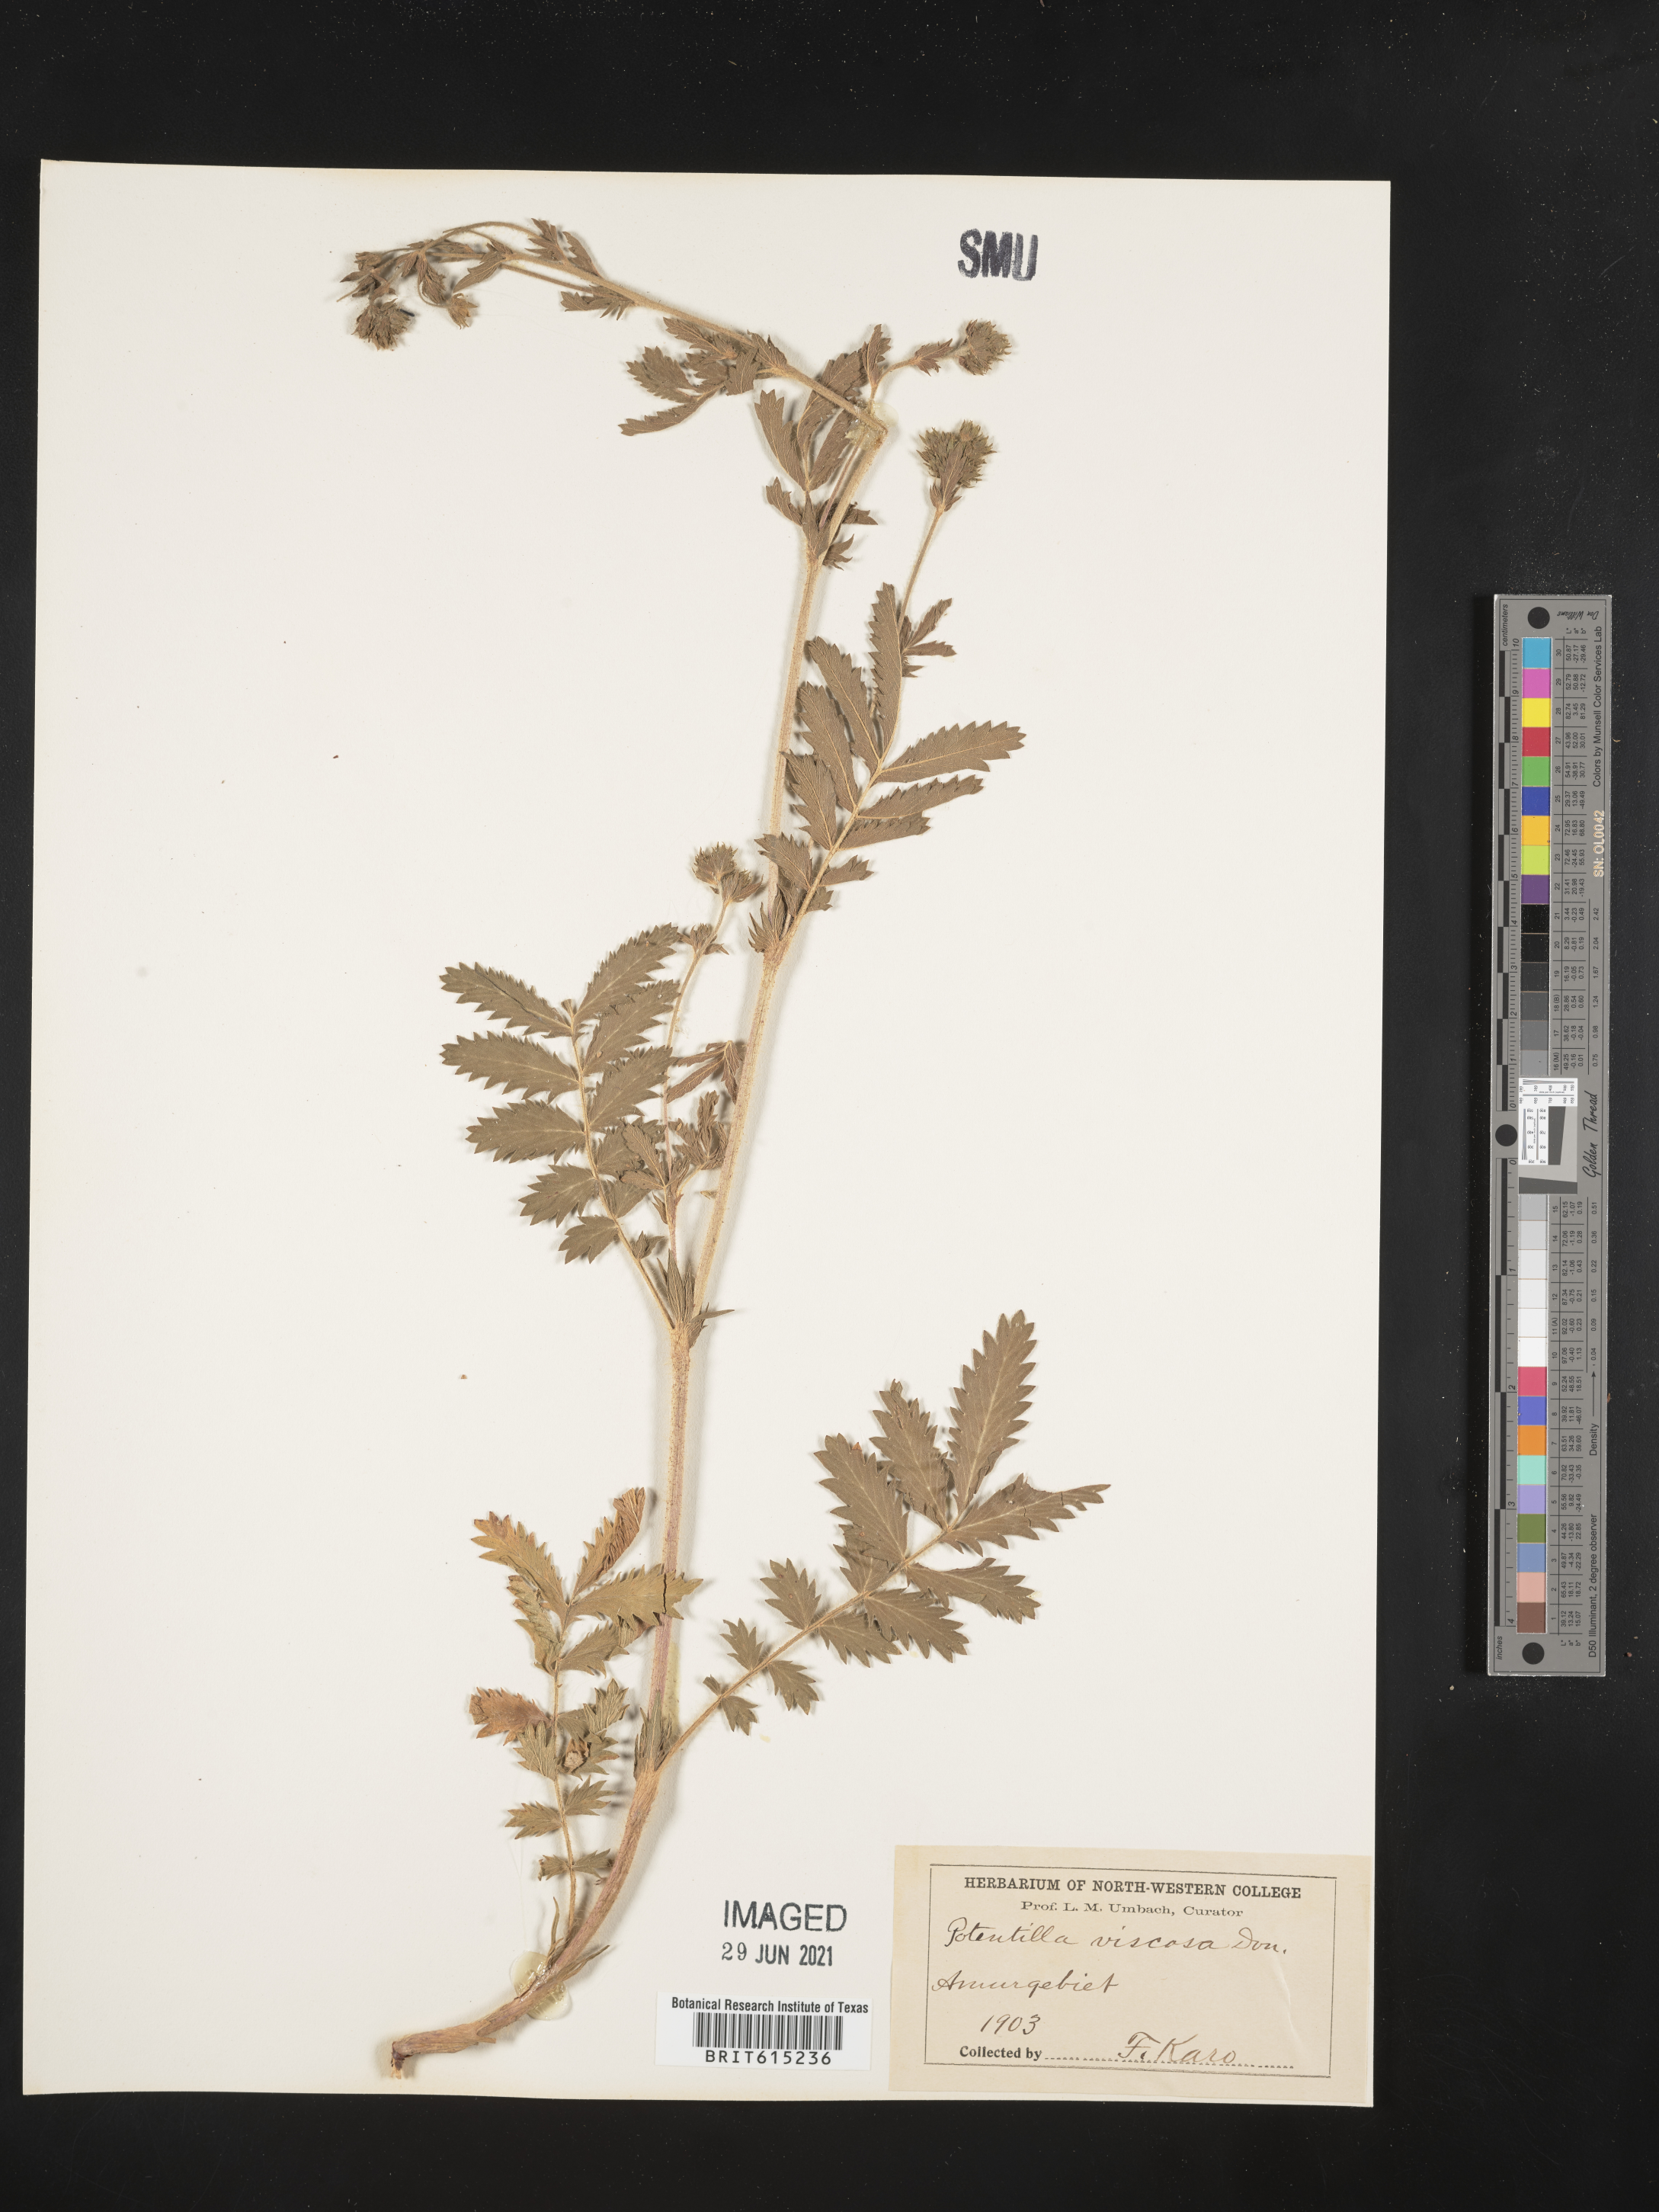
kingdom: Plantae
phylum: Tracheophyta
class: Magnoliopsida
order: Rosales
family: Rosaceae
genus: Potentilla
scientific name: Potentilla longifolia
